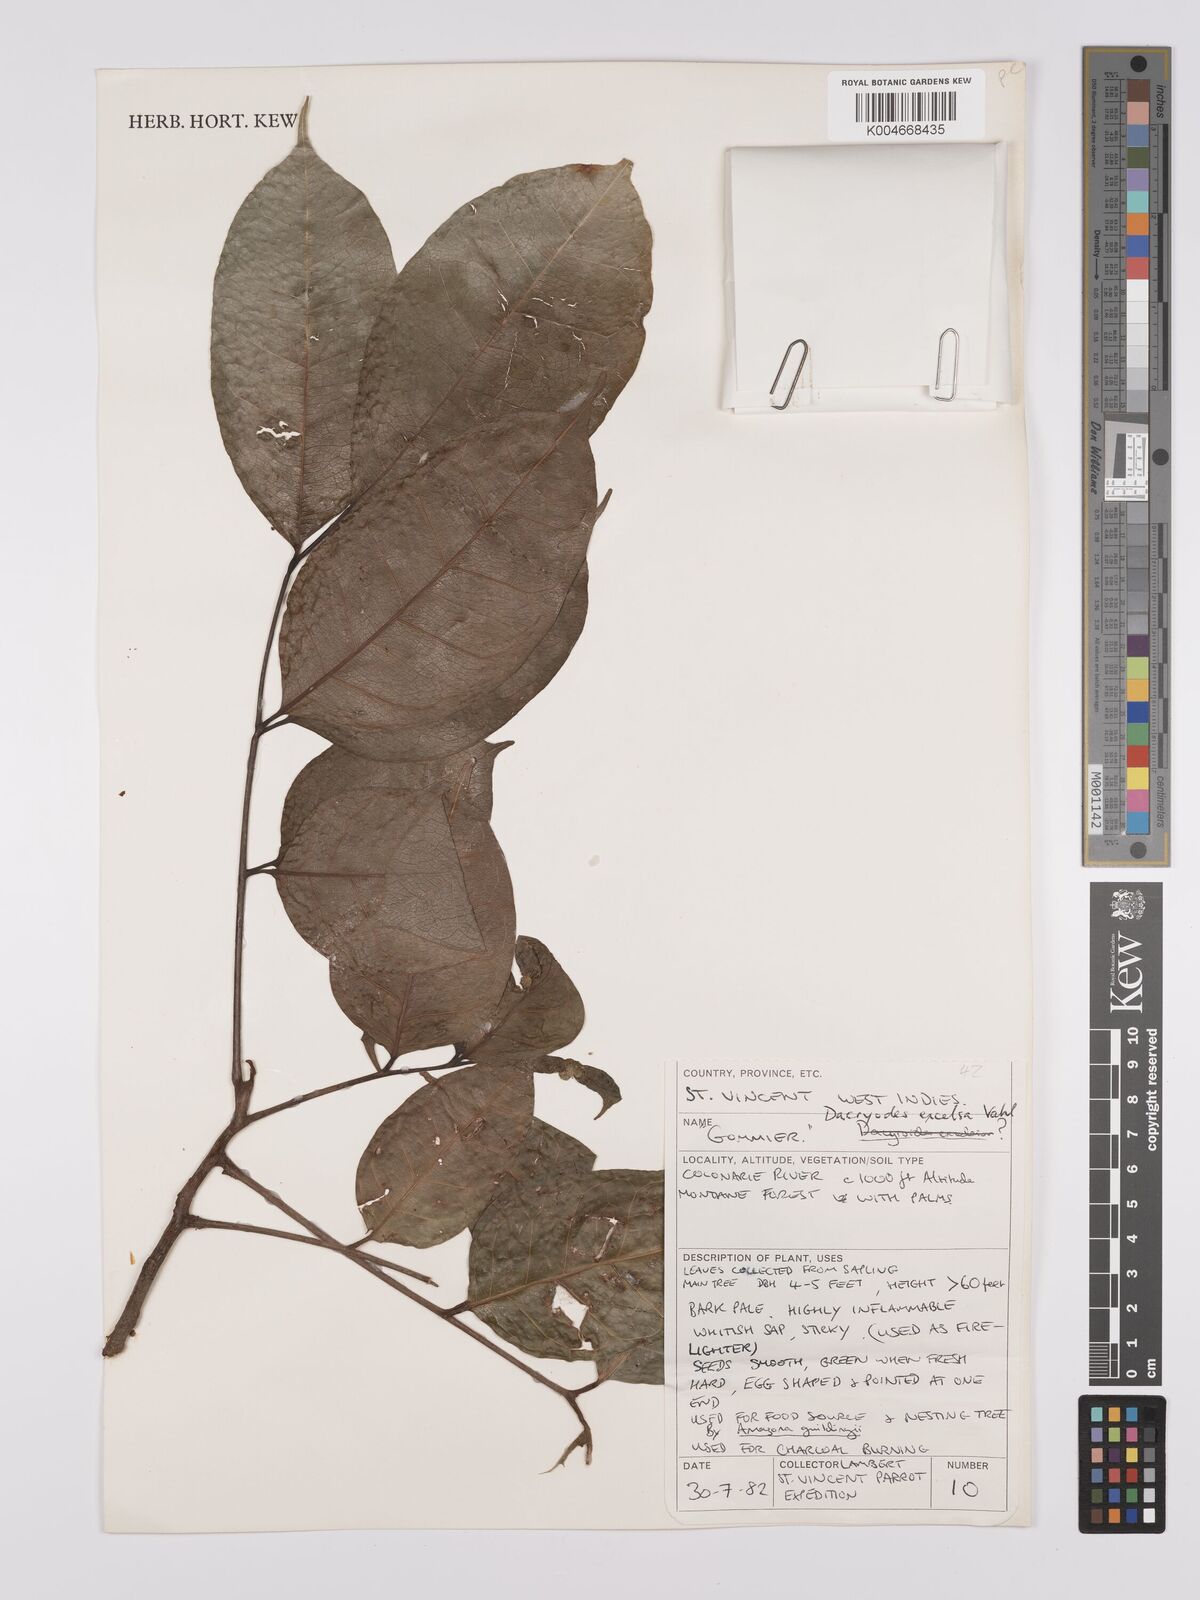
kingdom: Plantae
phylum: Tracheophyta
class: Magnoliopsida
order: Sapindales
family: Burseraceae
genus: Dacryodes
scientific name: Dacryodes excelsa
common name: Candlewood
